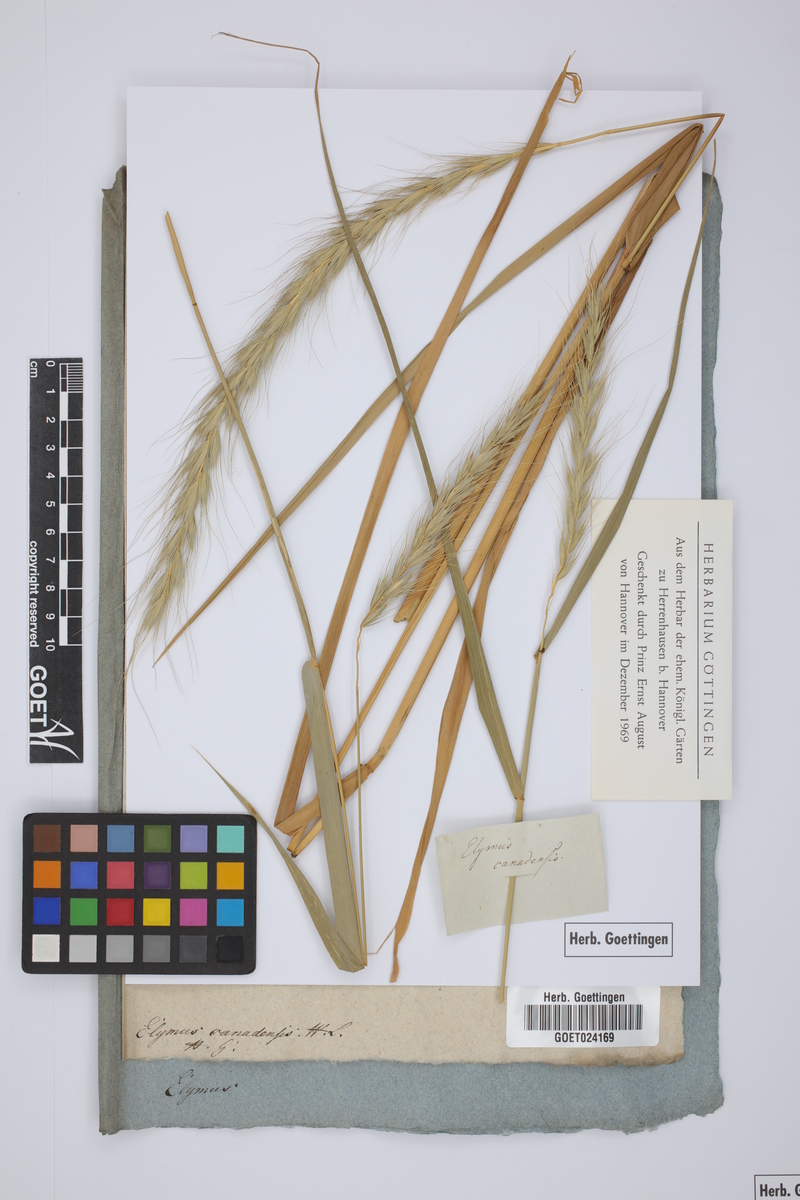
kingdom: Plantae
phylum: Tracheophyta
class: Liliopsida
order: Poales
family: Poaceae
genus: Elymus
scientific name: Elymus canadensis
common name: Canada wild rye
